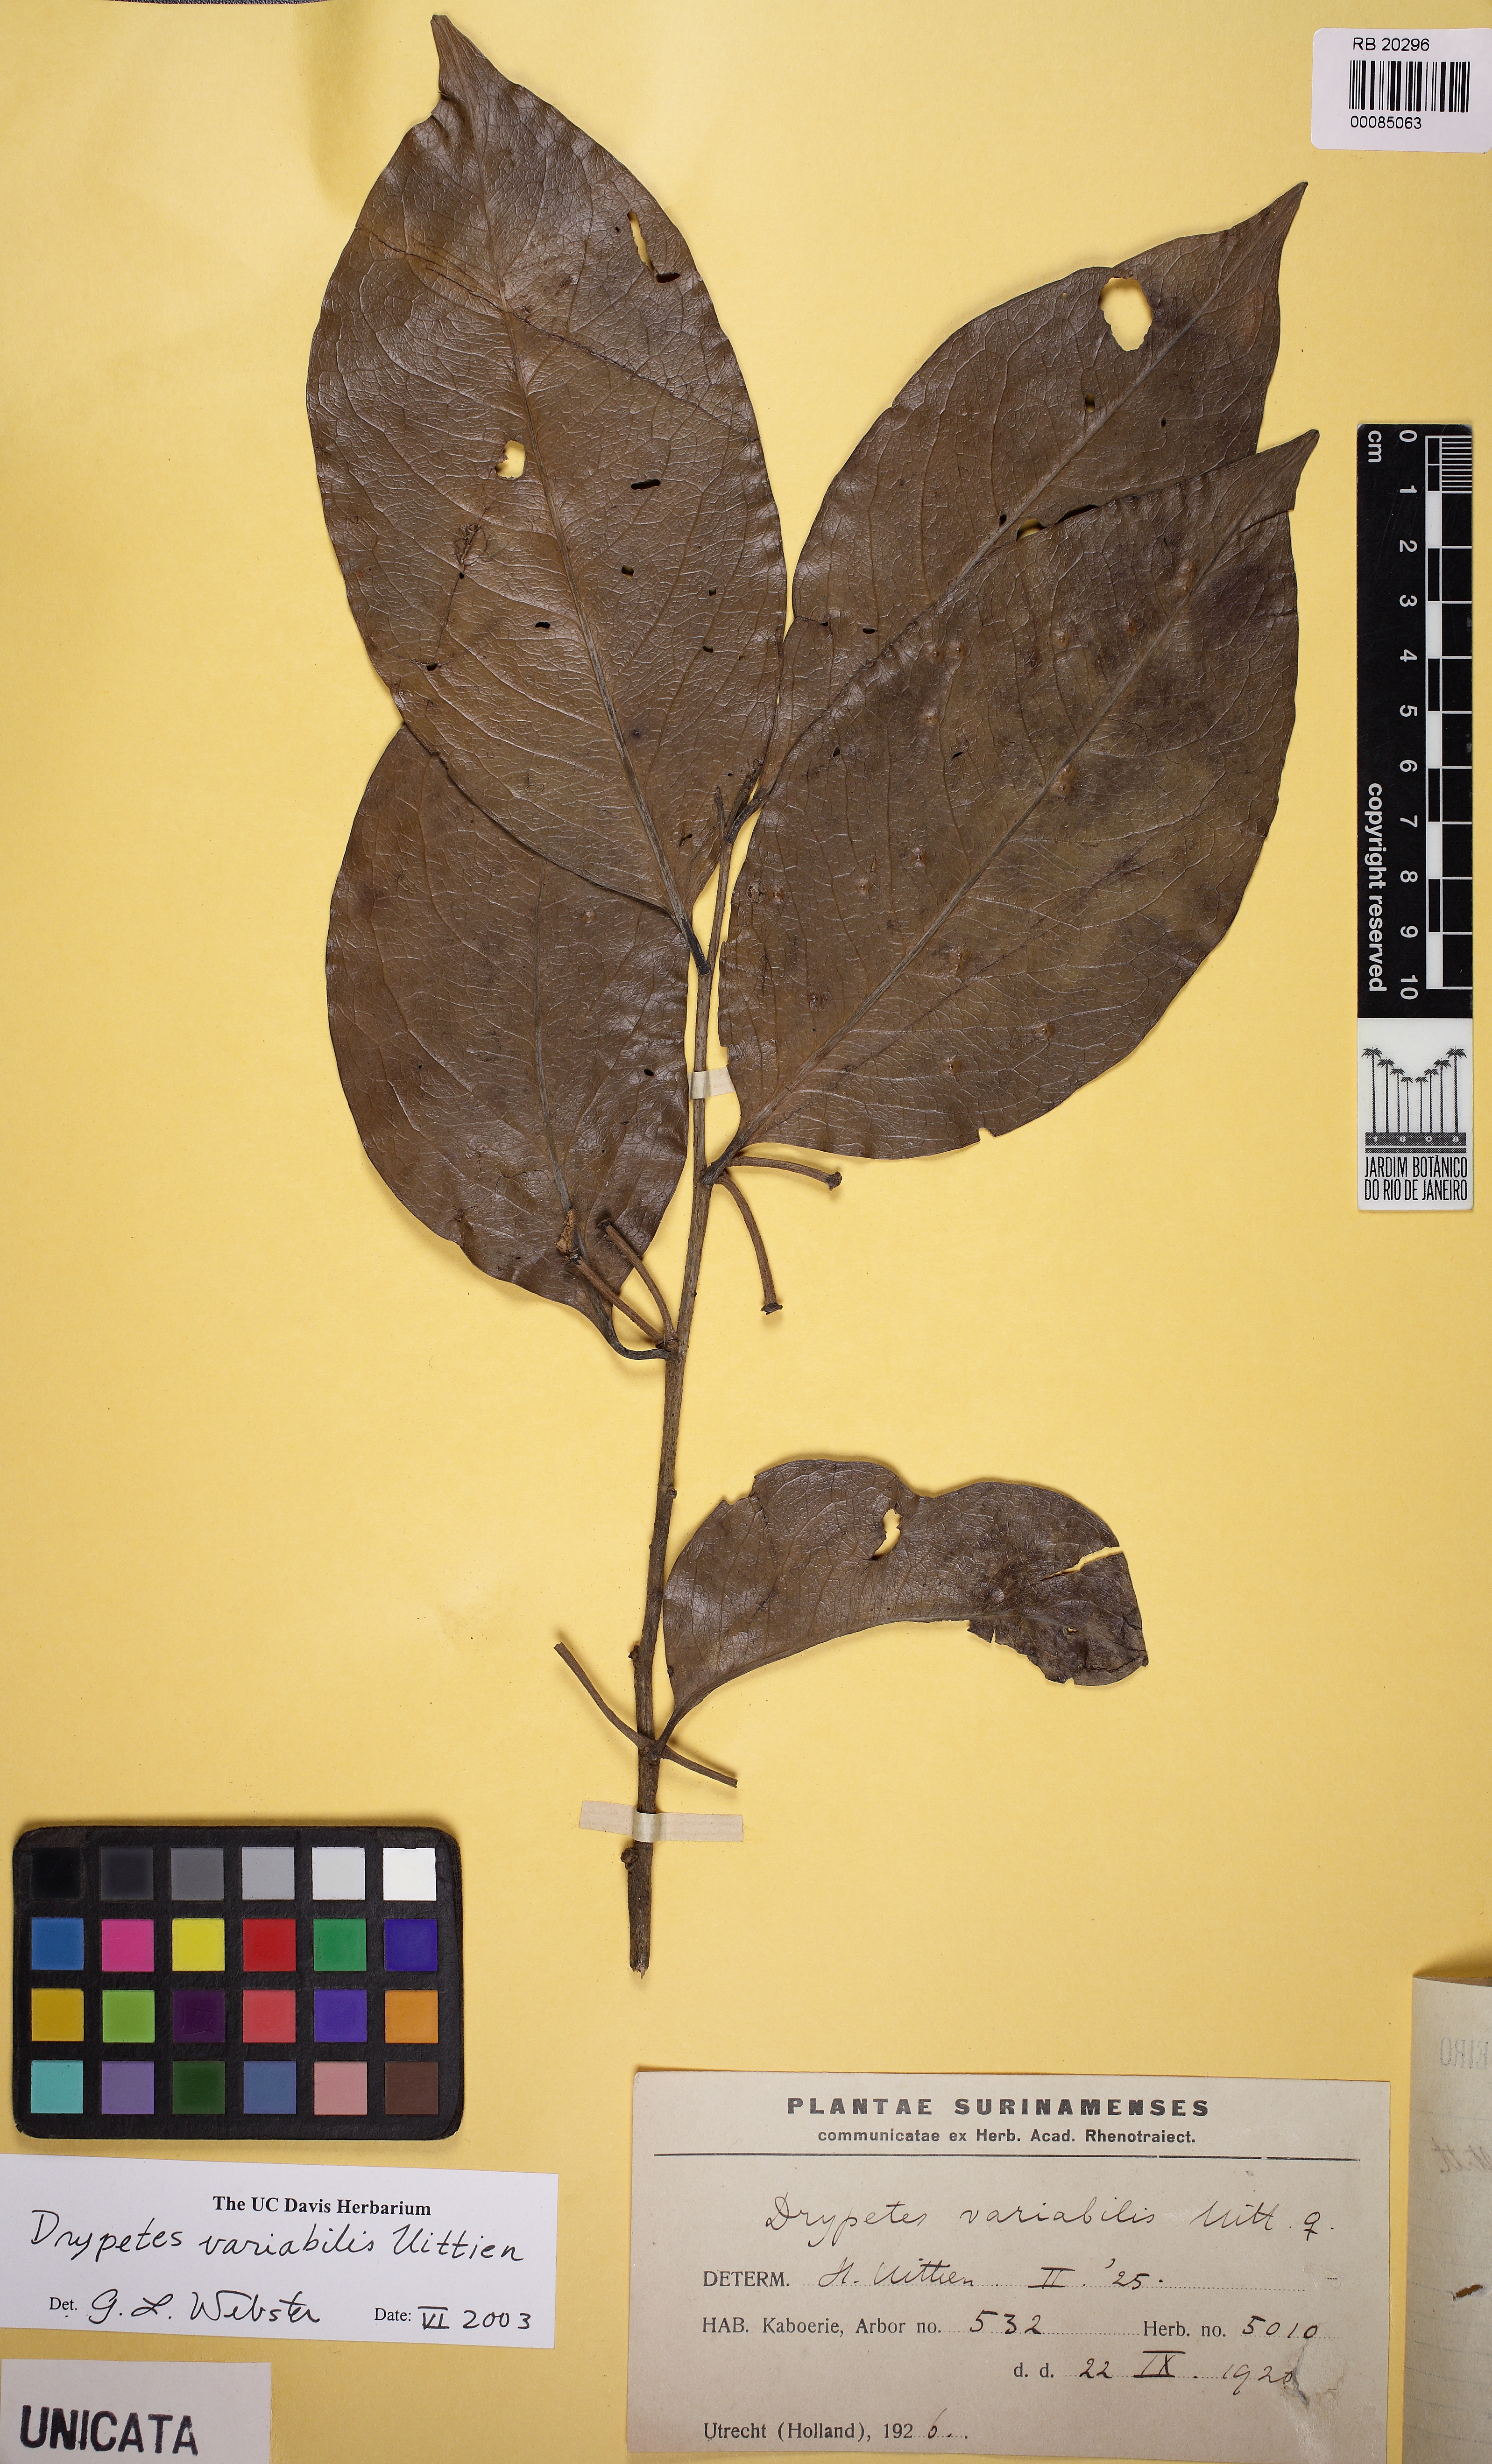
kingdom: Plantae
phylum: Tracheophyta
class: Magnoliopsida
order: Malpighiales
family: Putranjivaceae
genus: Drypetes
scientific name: Drypetes variabilis
